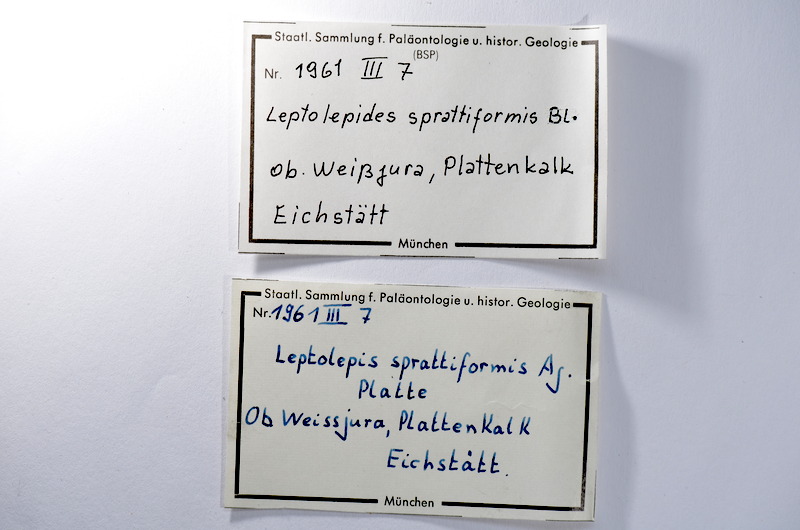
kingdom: Animalia
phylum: Chordata
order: Salmoniformes
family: Orthogonikleithridae
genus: Leptolepides
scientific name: Leptolepides sprattiformis
